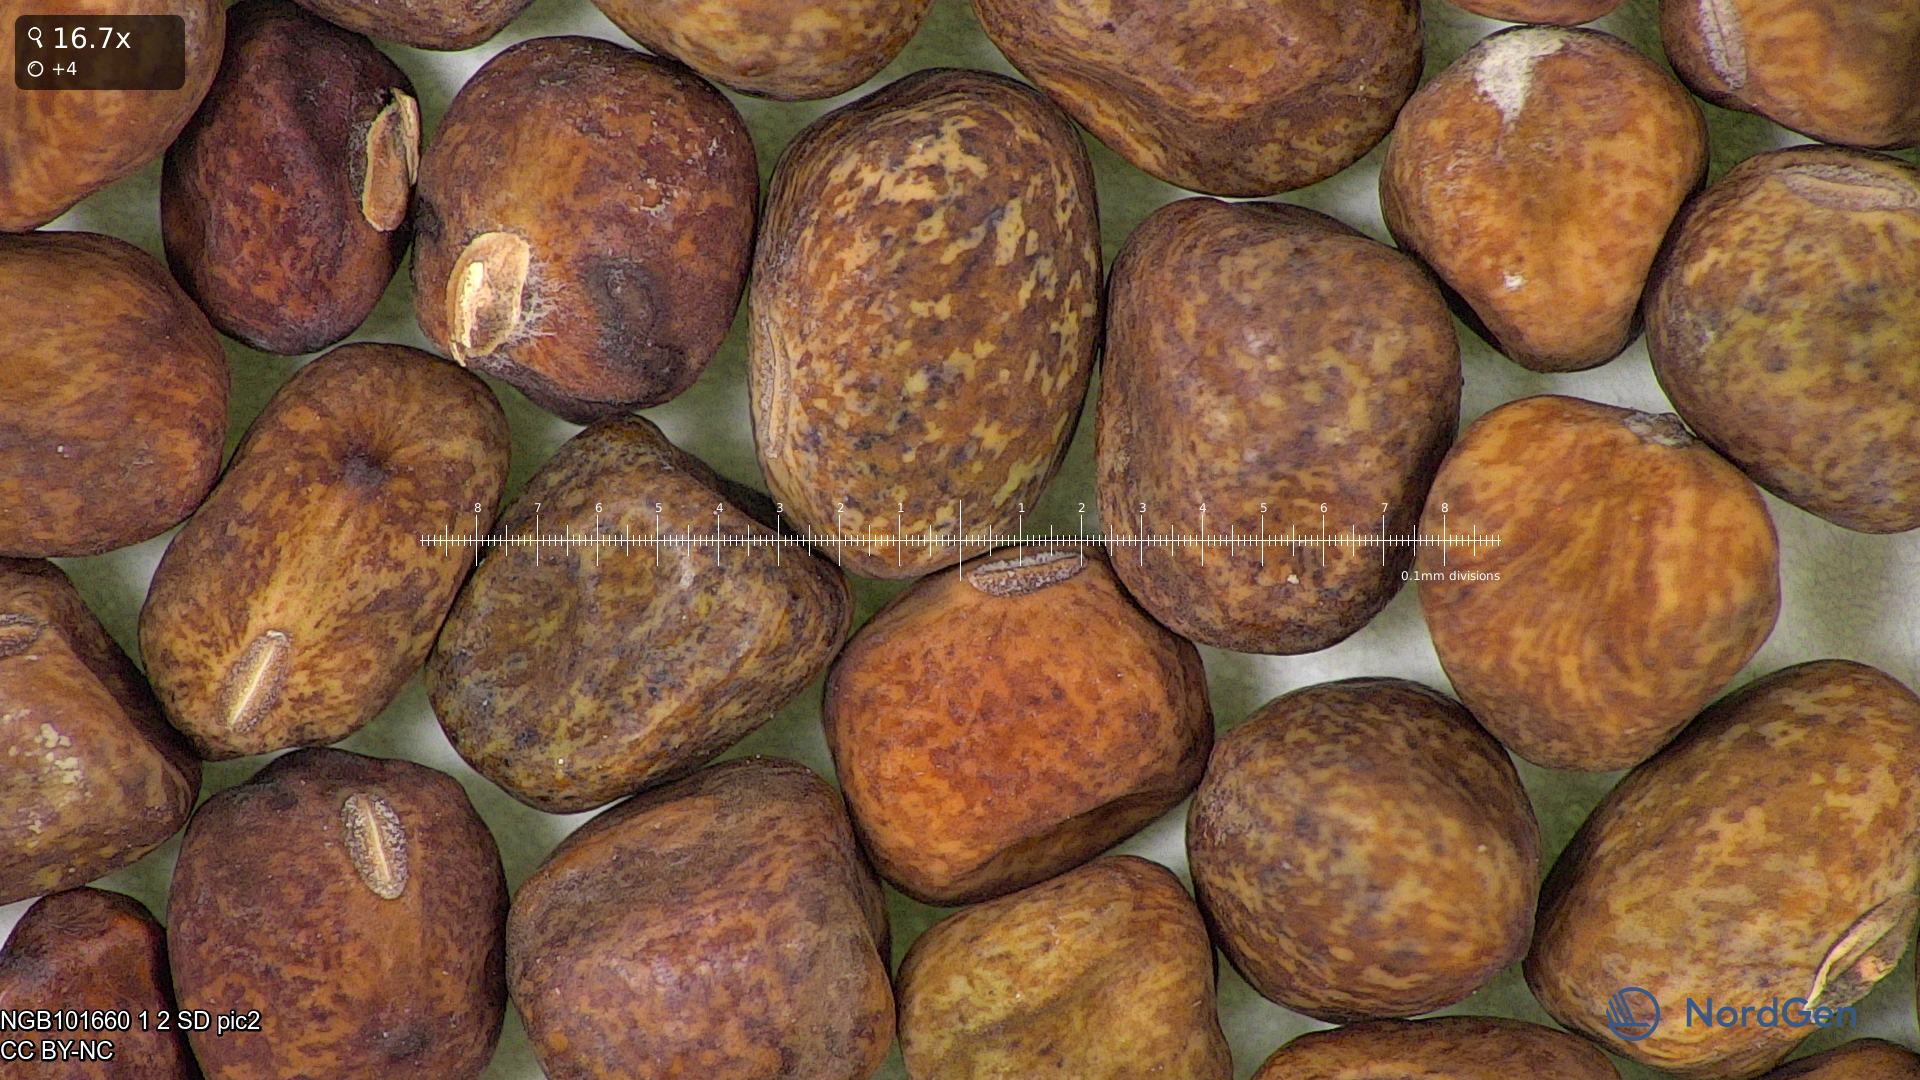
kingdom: Plantae
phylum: Tracheophyta
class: Magnoliopsida
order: Fabales
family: Fabaceae
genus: Lathyrus
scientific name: Lathyrus oleraceus
